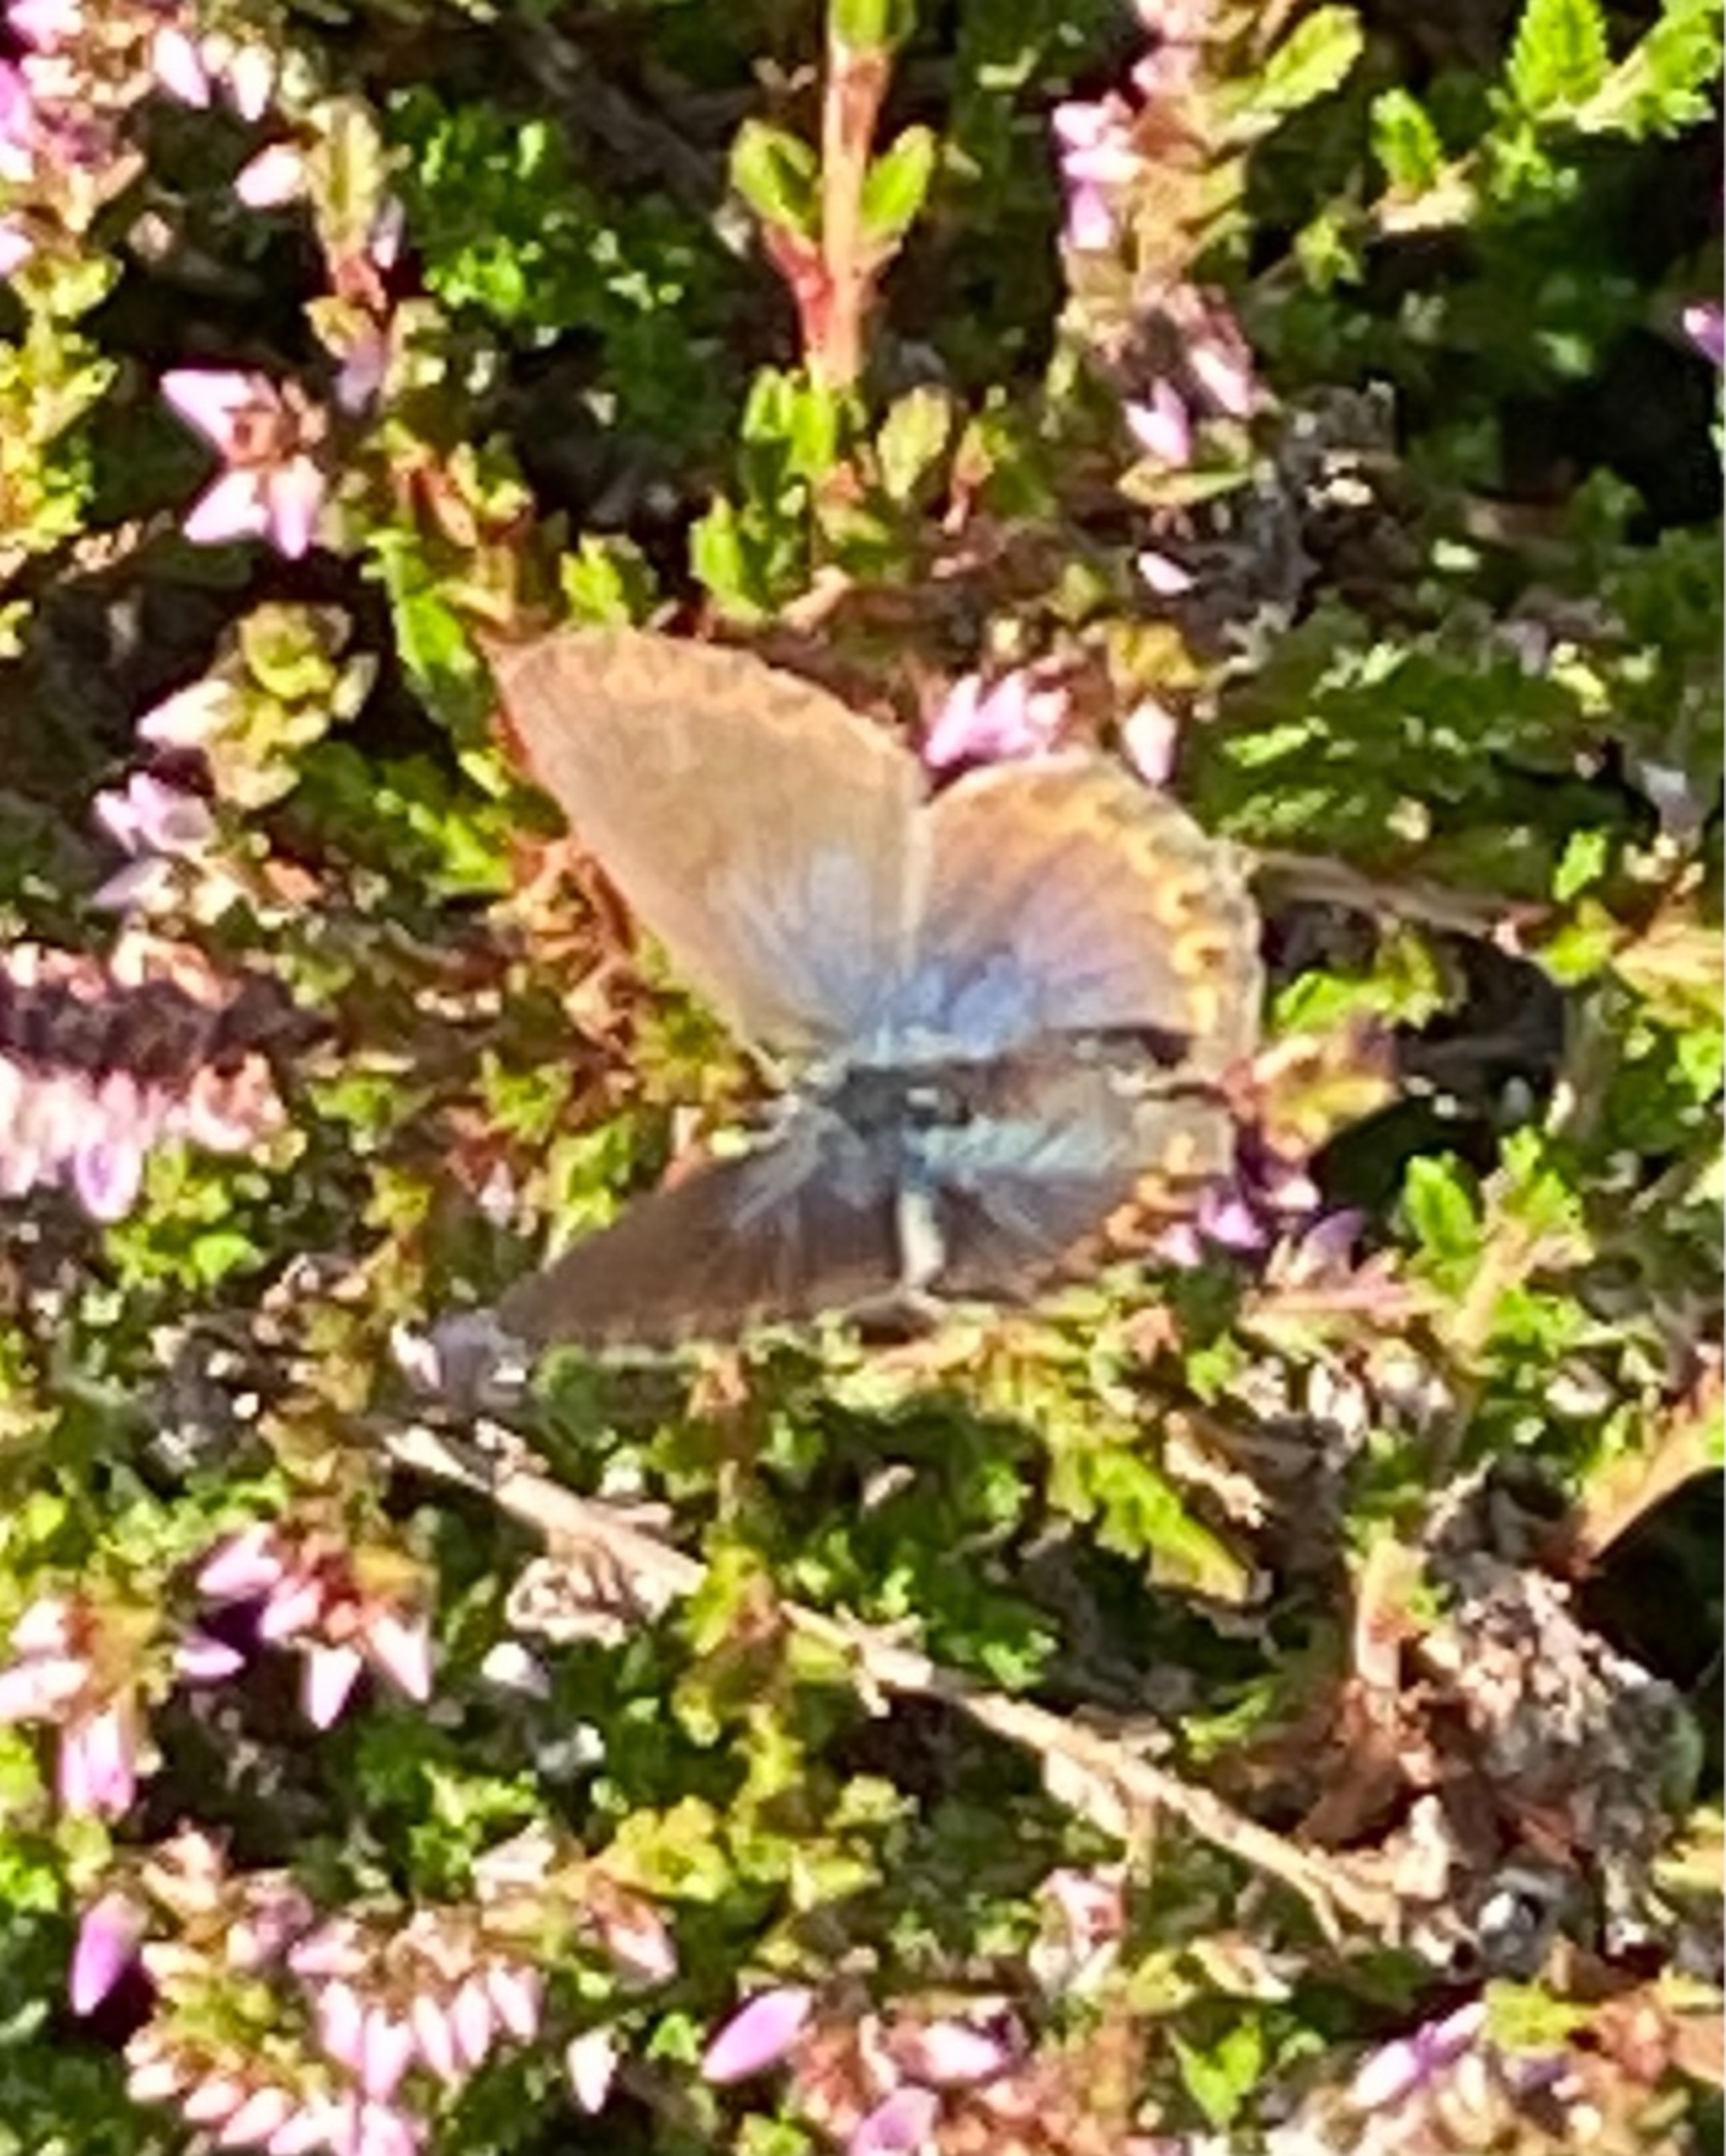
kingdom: Animalia
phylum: Arthropoda
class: Insecta
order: Lepidoptera
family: Lycaenidae
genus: Lycaeides
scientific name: Lycaeides idas
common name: Foranderlig blåfugl
